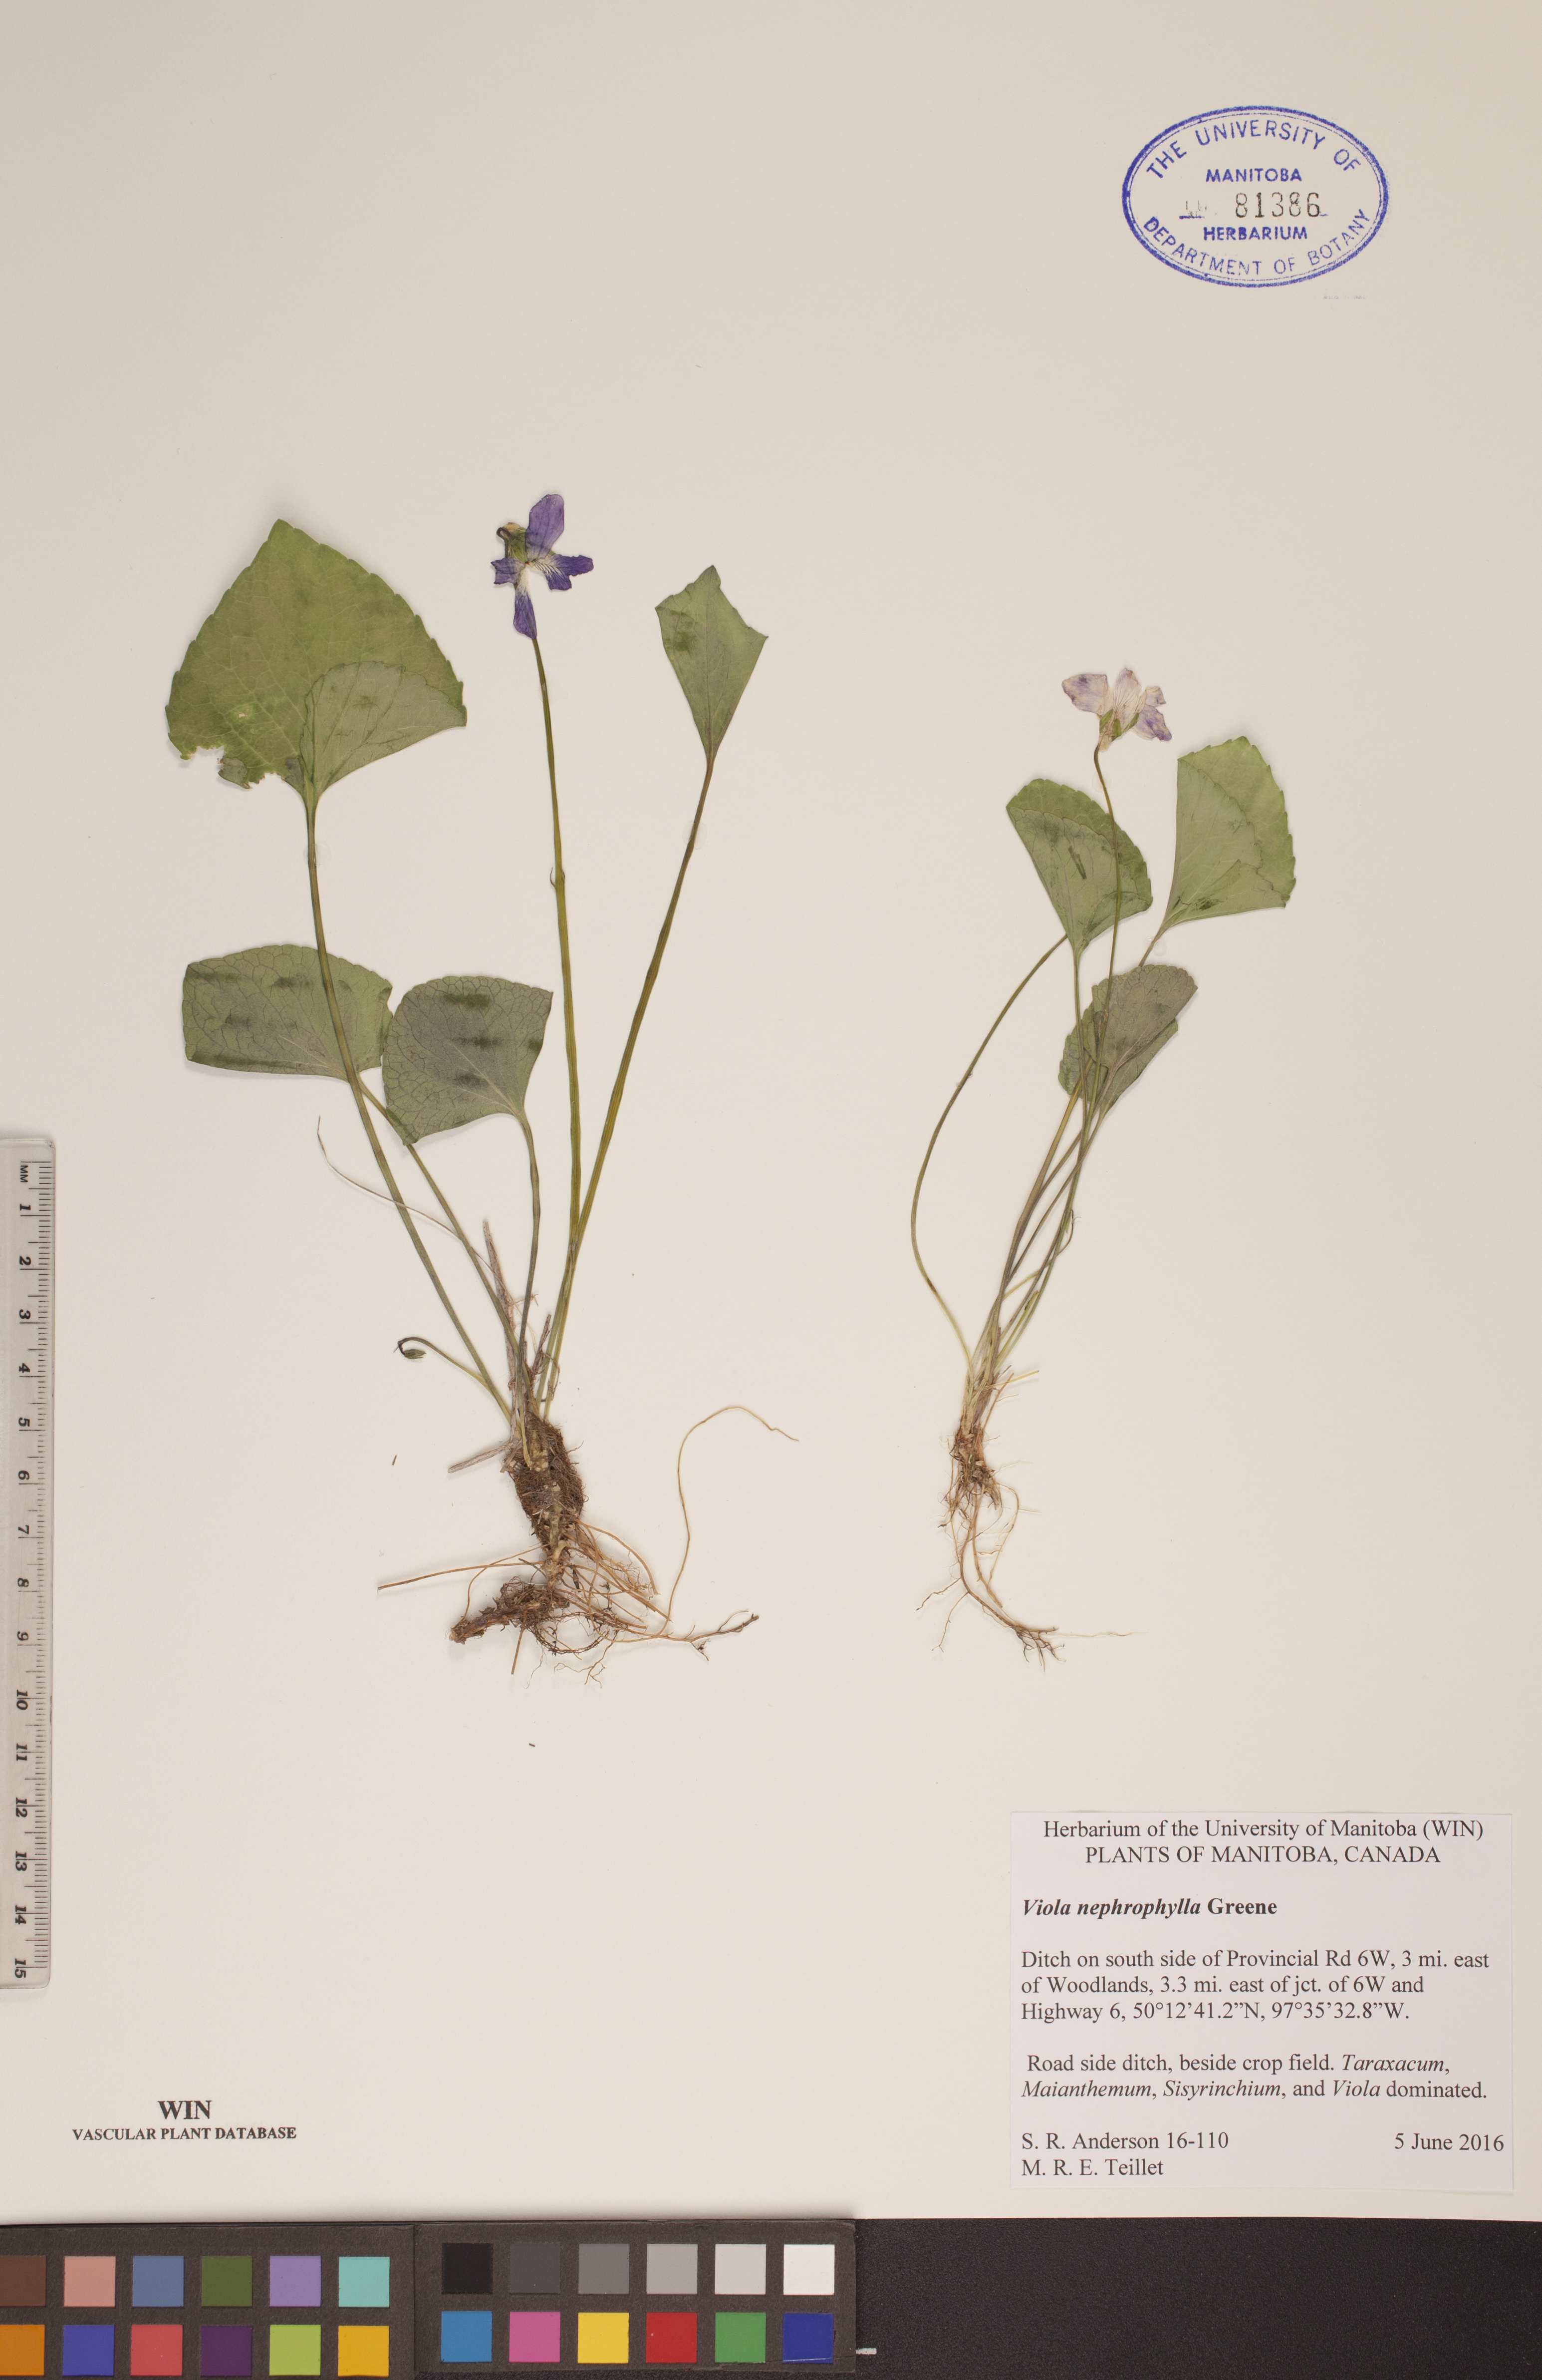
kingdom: Plantae
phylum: Tracheophyta
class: Magnoliopsida
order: Malpighiales
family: Violaceae
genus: Viola
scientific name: Viola nephrophylla
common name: Blue meadow violet
